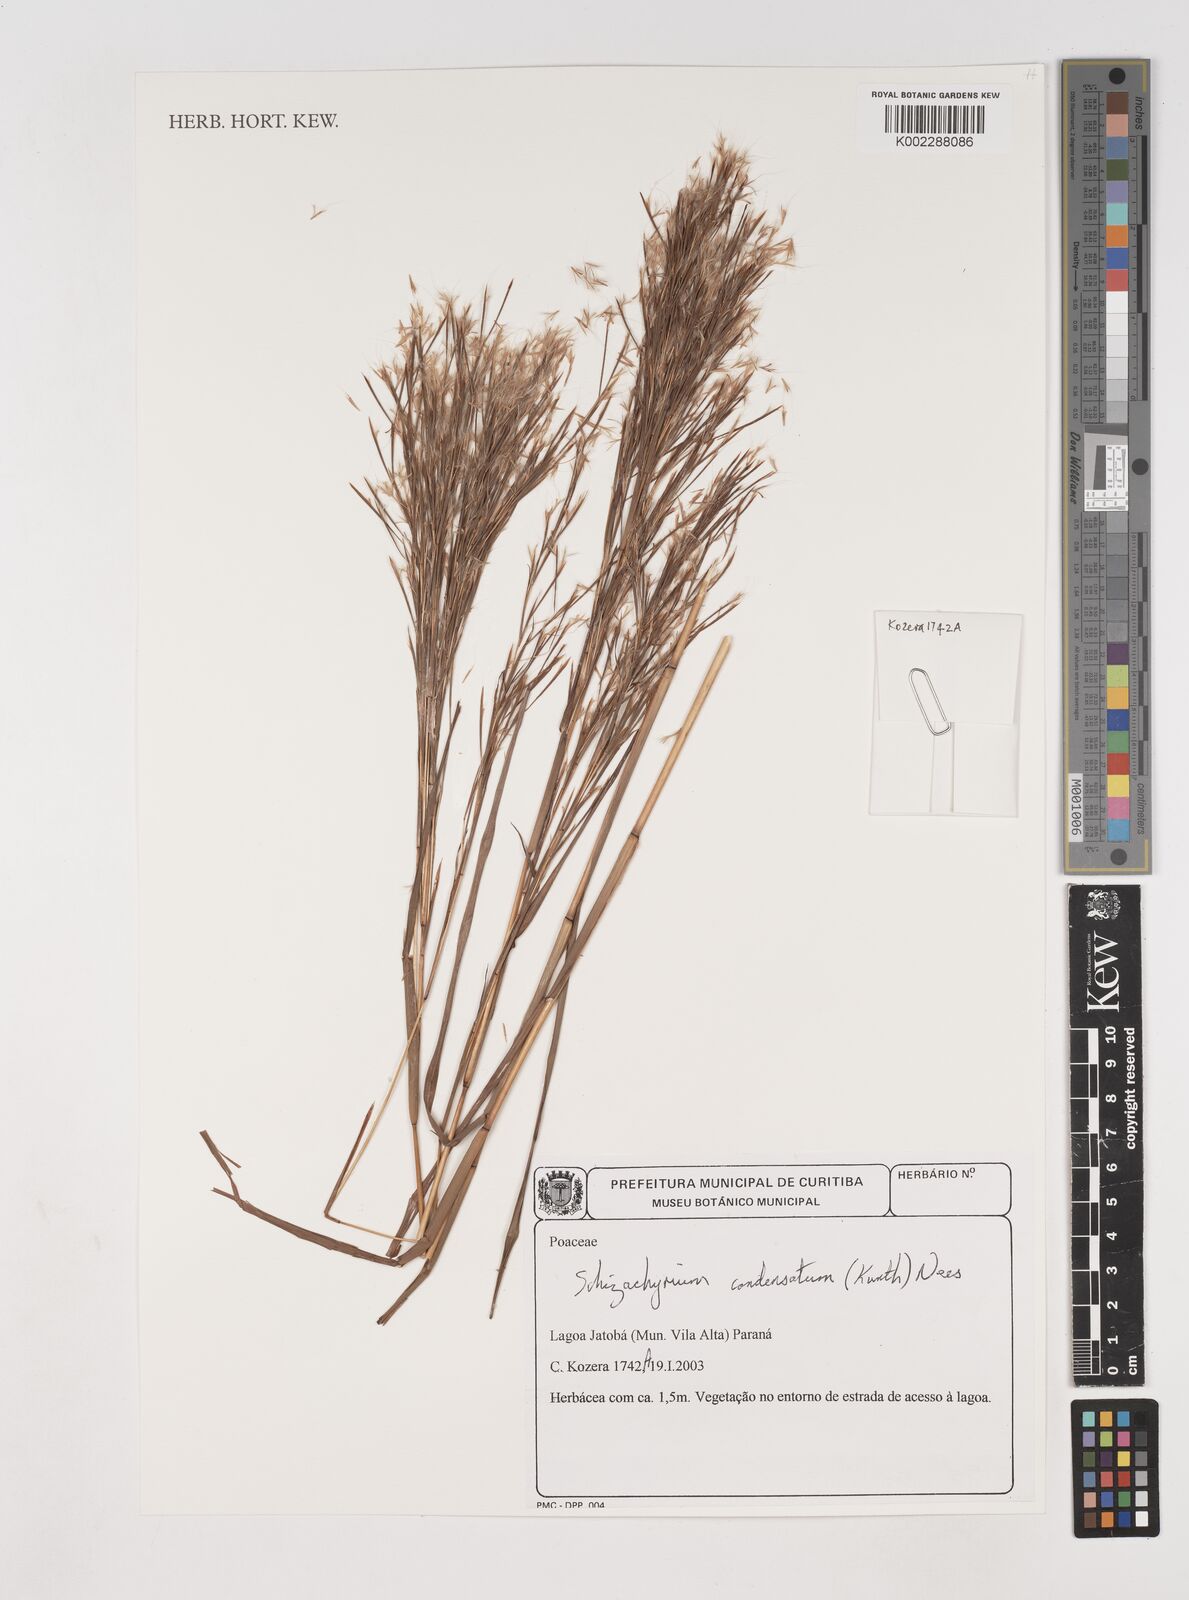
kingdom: Plantae
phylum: Tracheophyta
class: Liliopsida
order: Poales
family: Poaceae
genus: Schizachyrium
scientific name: Schizachyrium condensatum
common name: Bush beardgrass
